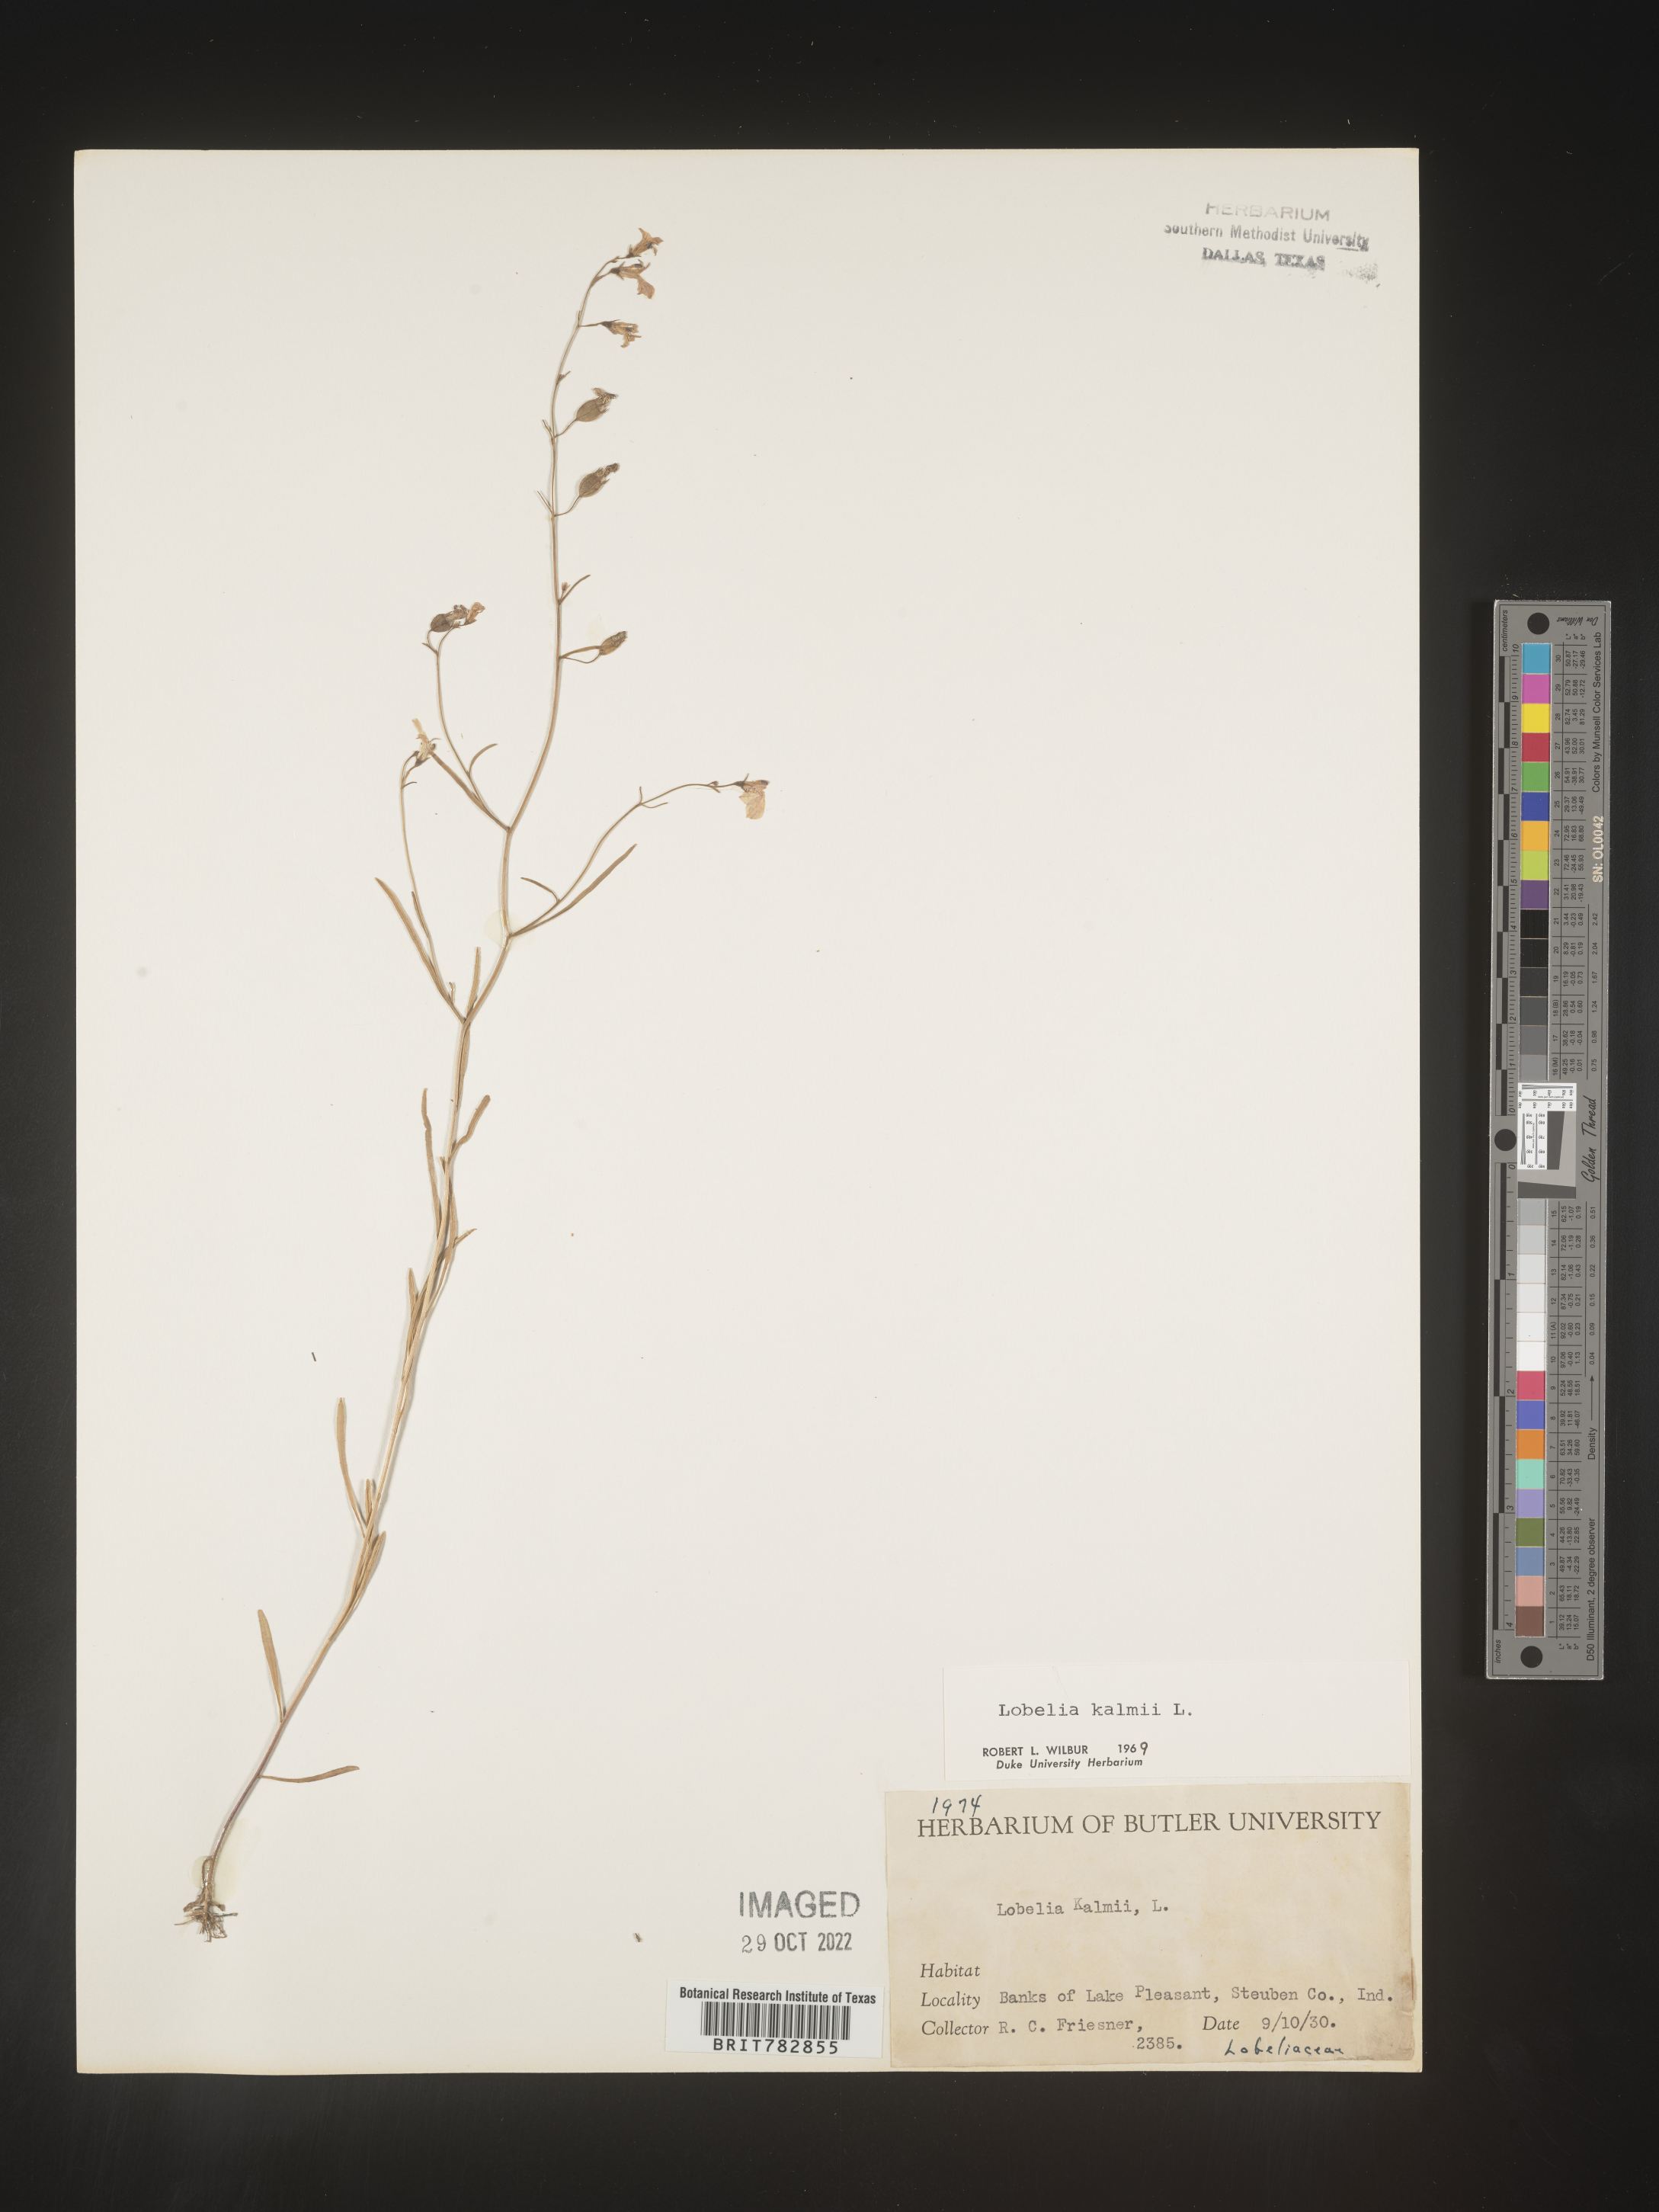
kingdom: Plantae
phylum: Tracheophyta
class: Magnoliopsida
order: Asterales
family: Campanulaceae
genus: Lobelia
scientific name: Lobelia
